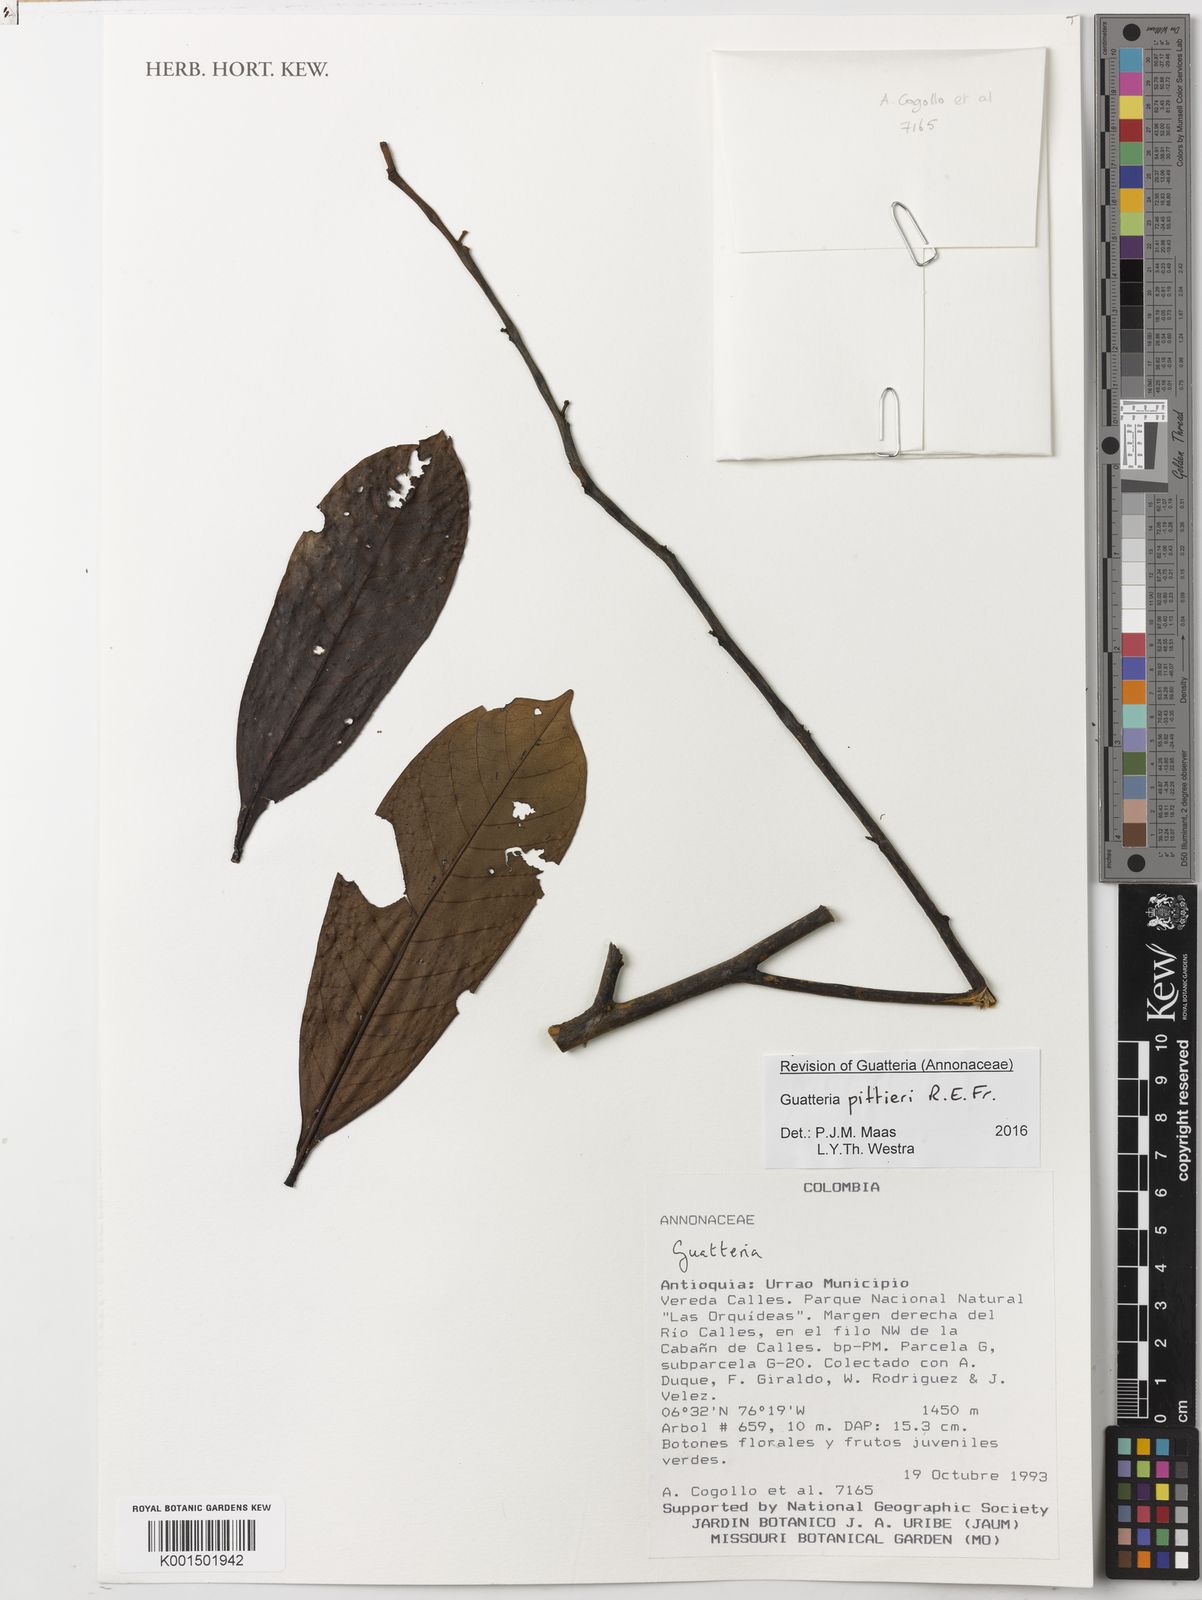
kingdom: Plantae
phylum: Tracheophyta
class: Magnoliopsida
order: Magnoliales
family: Annonaceae
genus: Guatteria
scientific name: Guatteria pittieri
